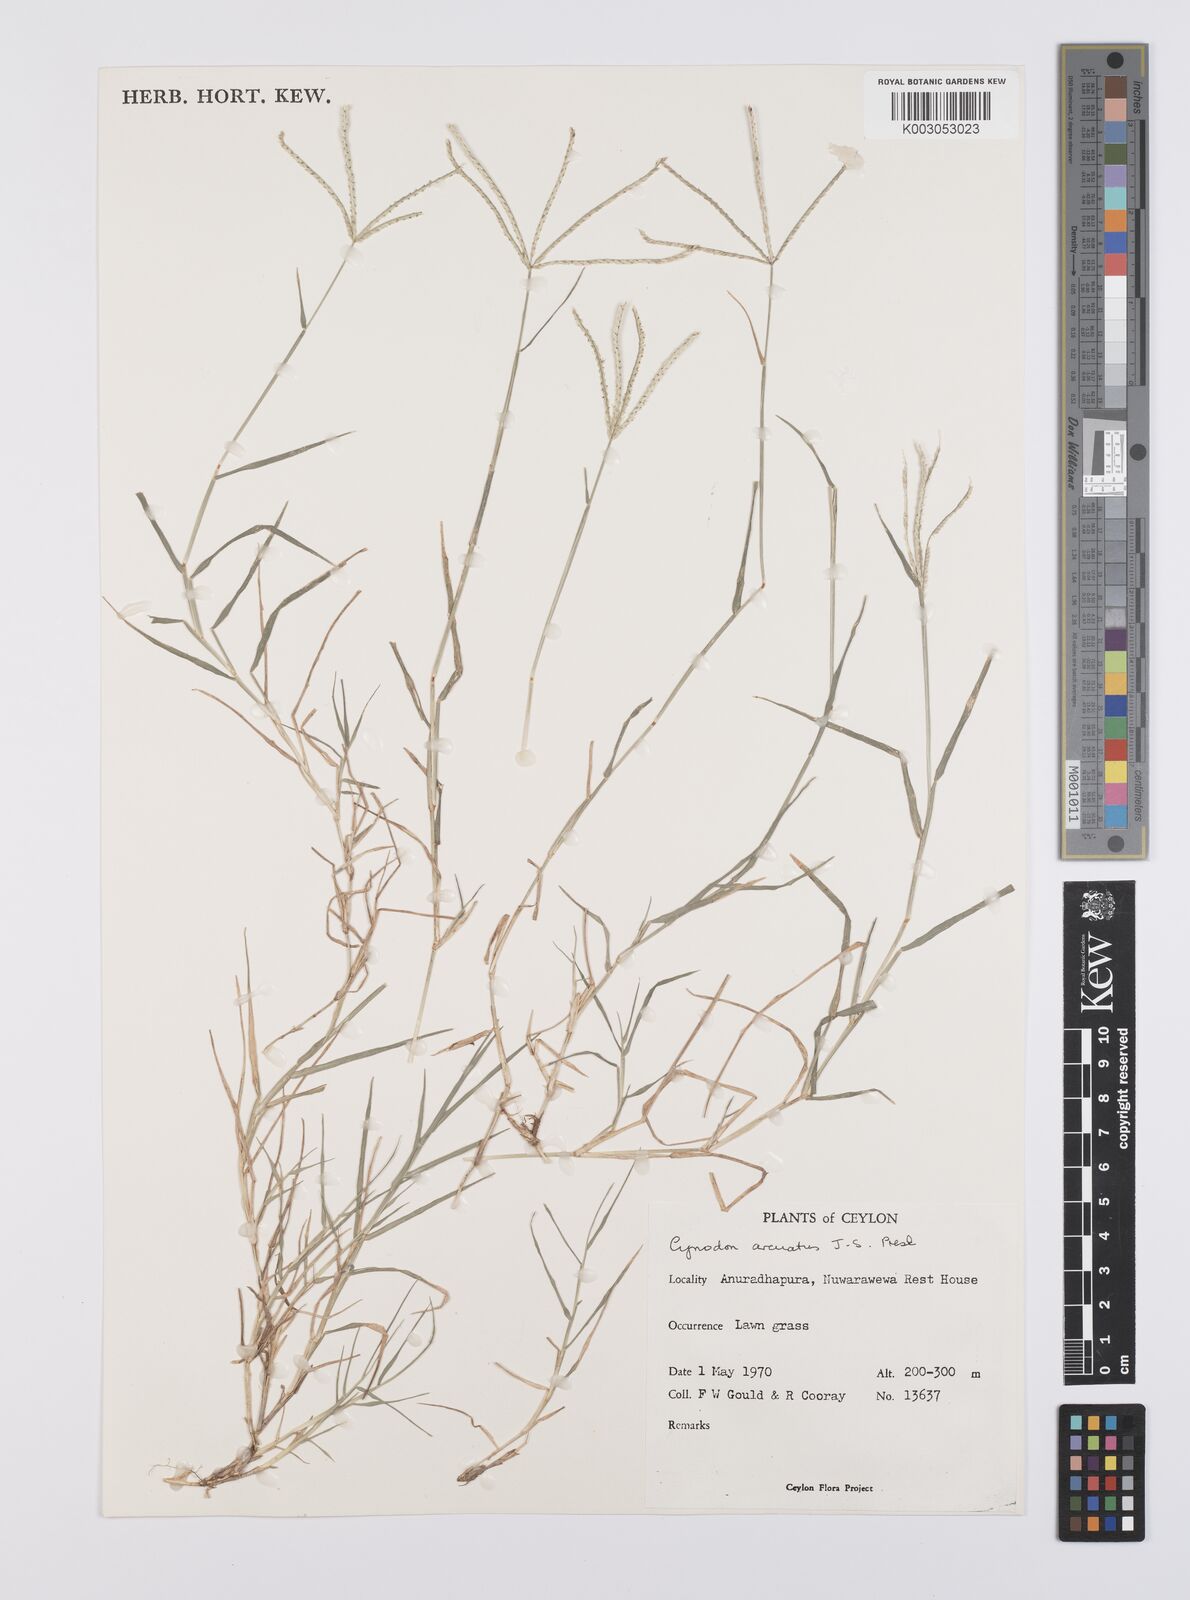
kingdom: Plantae
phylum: Tracheophyta
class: Liliopsida
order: Poales
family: Poaceae
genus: Cynodon
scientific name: Cynodon radiatus
